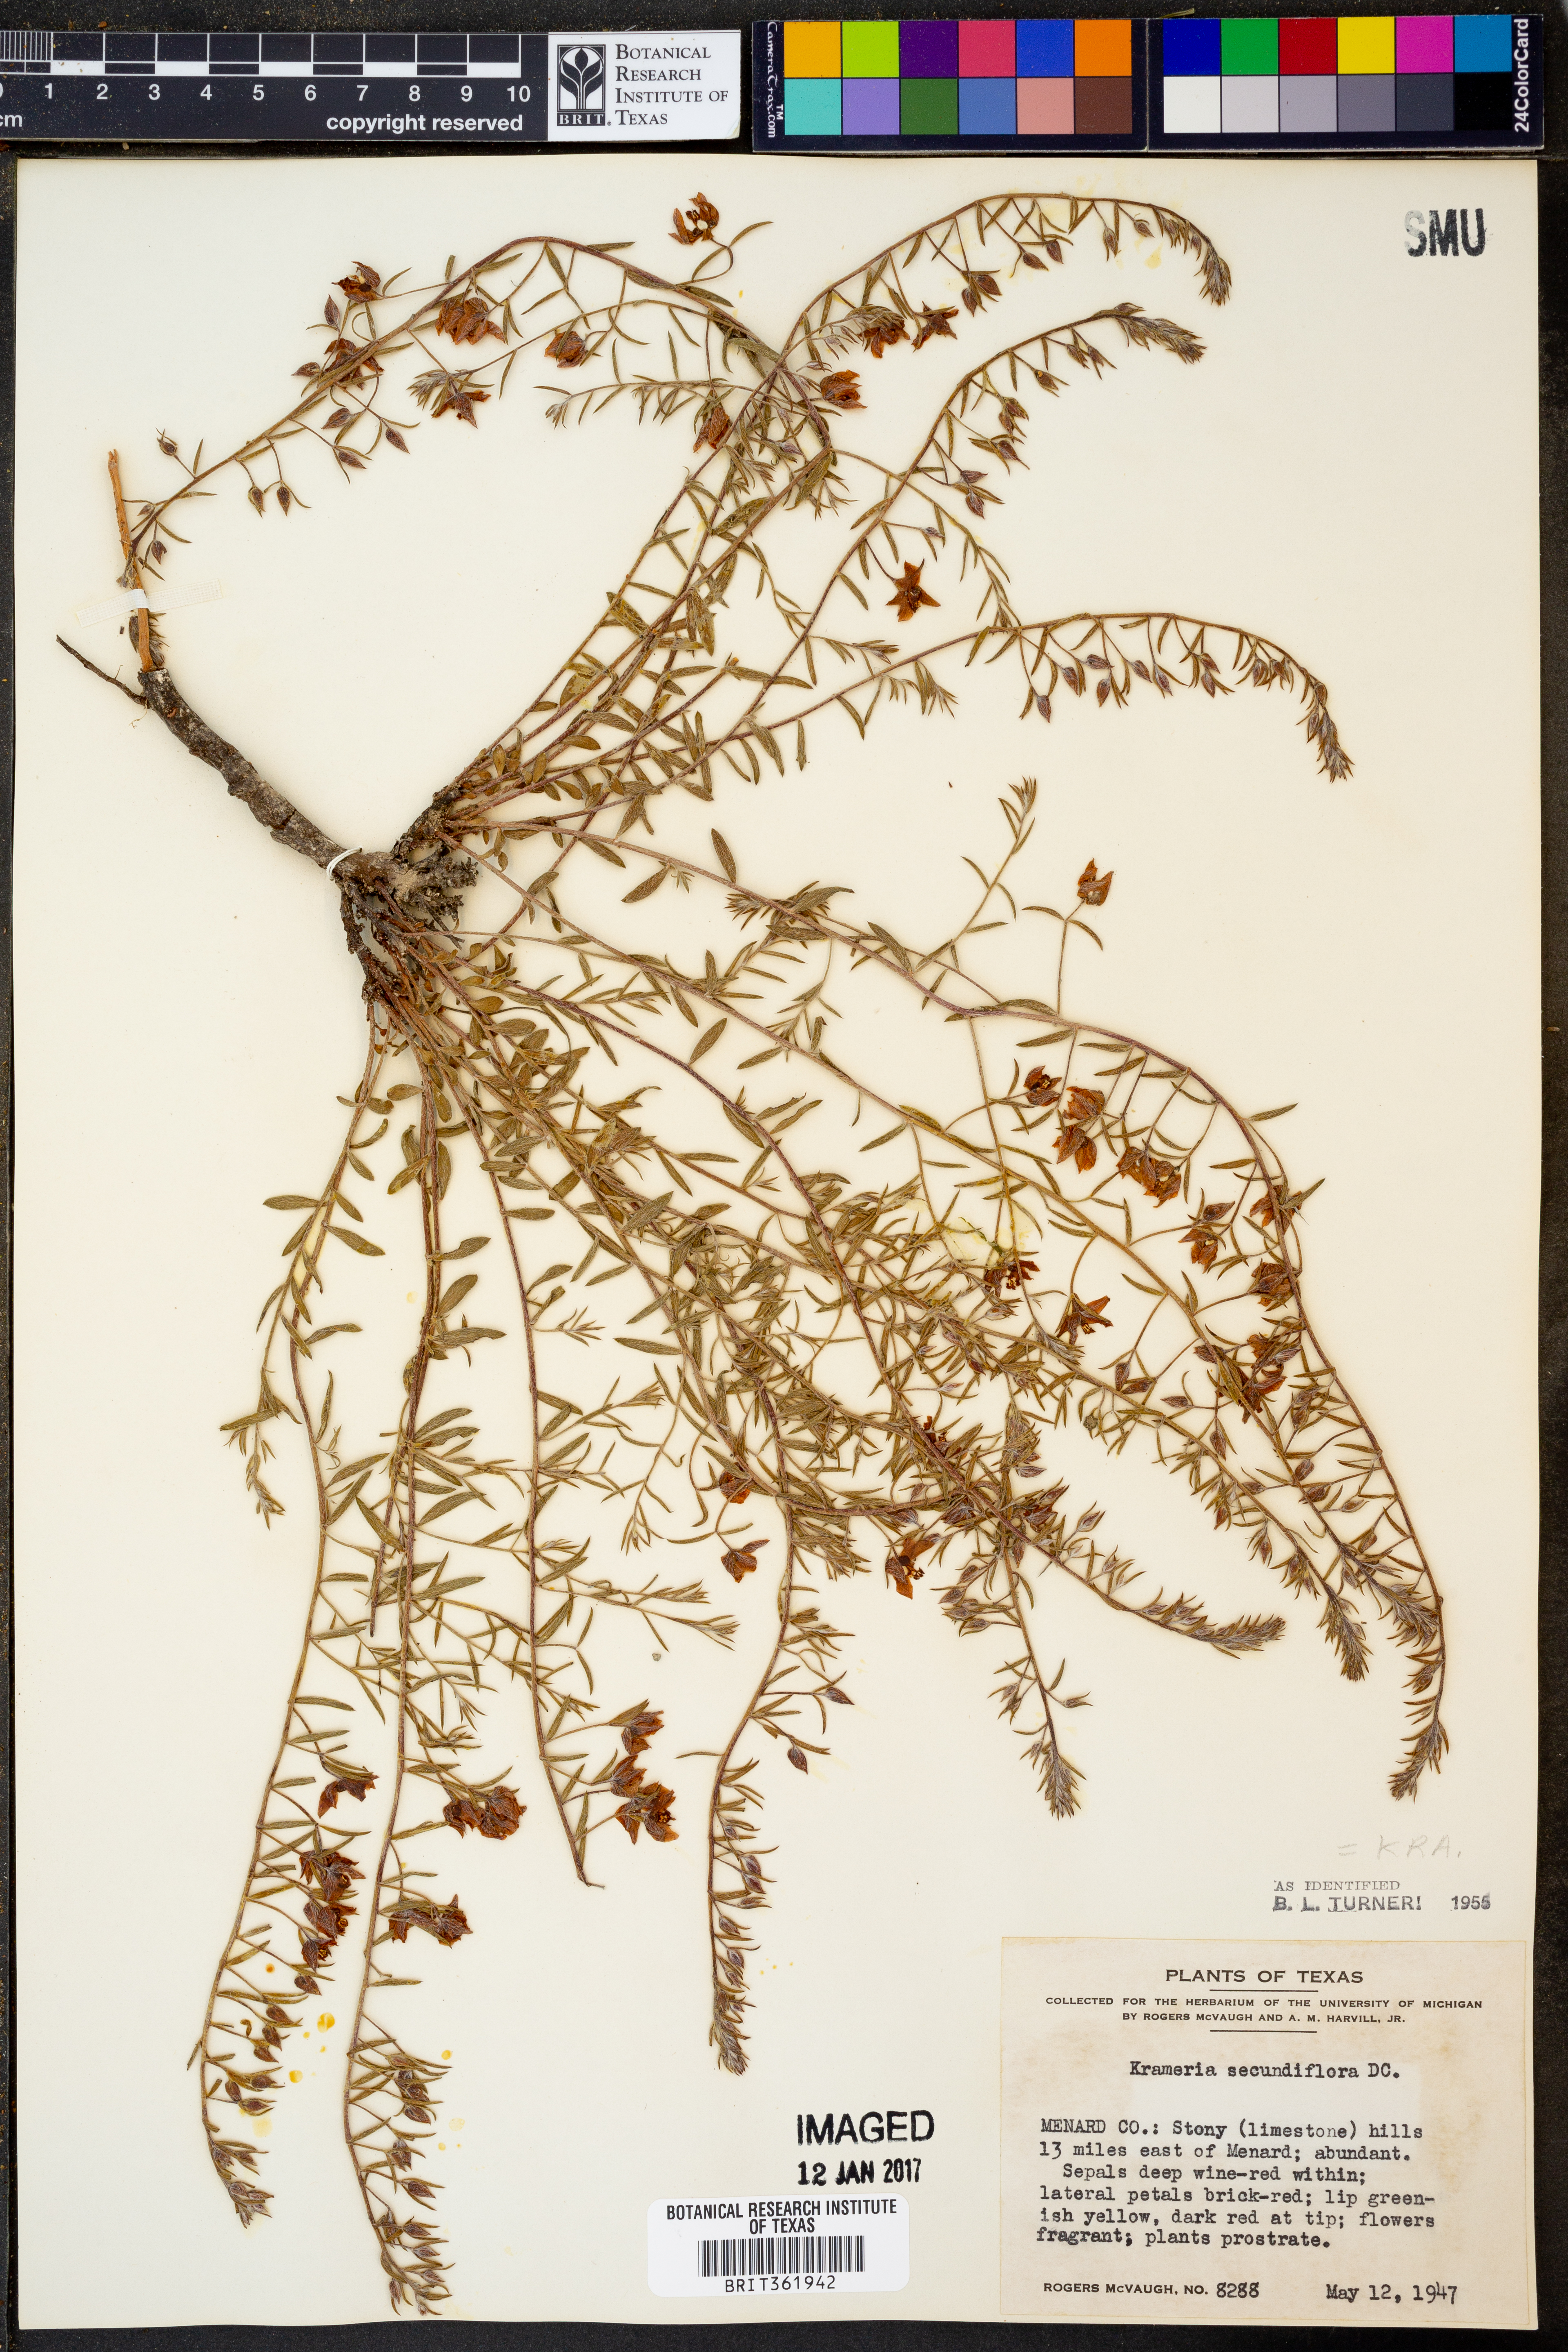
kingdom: Plantae
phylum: Tracheophyta
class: Magnoliopsida
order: Zygophyllales
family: Krameriaceae
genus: Krameria
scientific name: Krameria secundiflora
